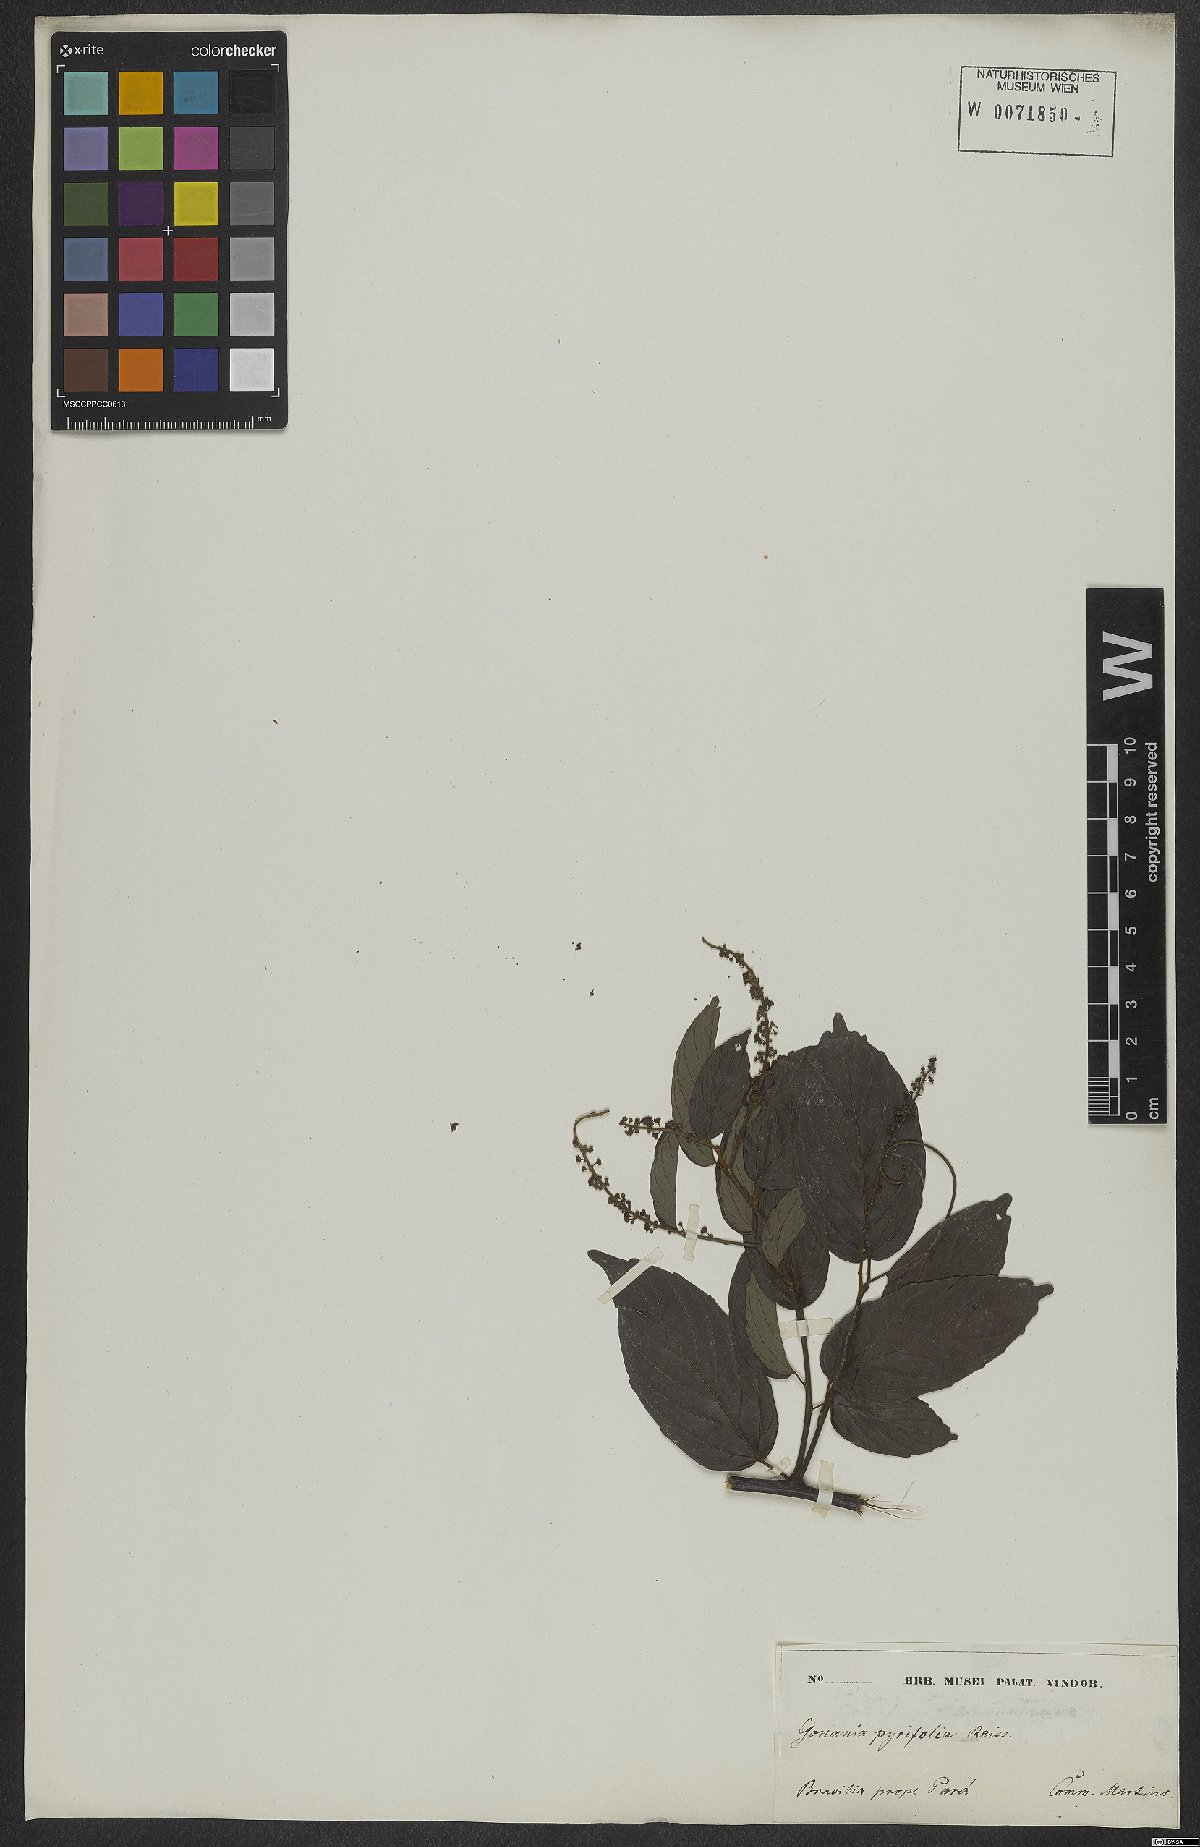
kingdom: Plantae
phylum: Tracheophyta
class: Magnoliopsida
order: Rosales
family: Rhamnaceae
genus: Gouania
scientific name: Gouania pyrifolia
